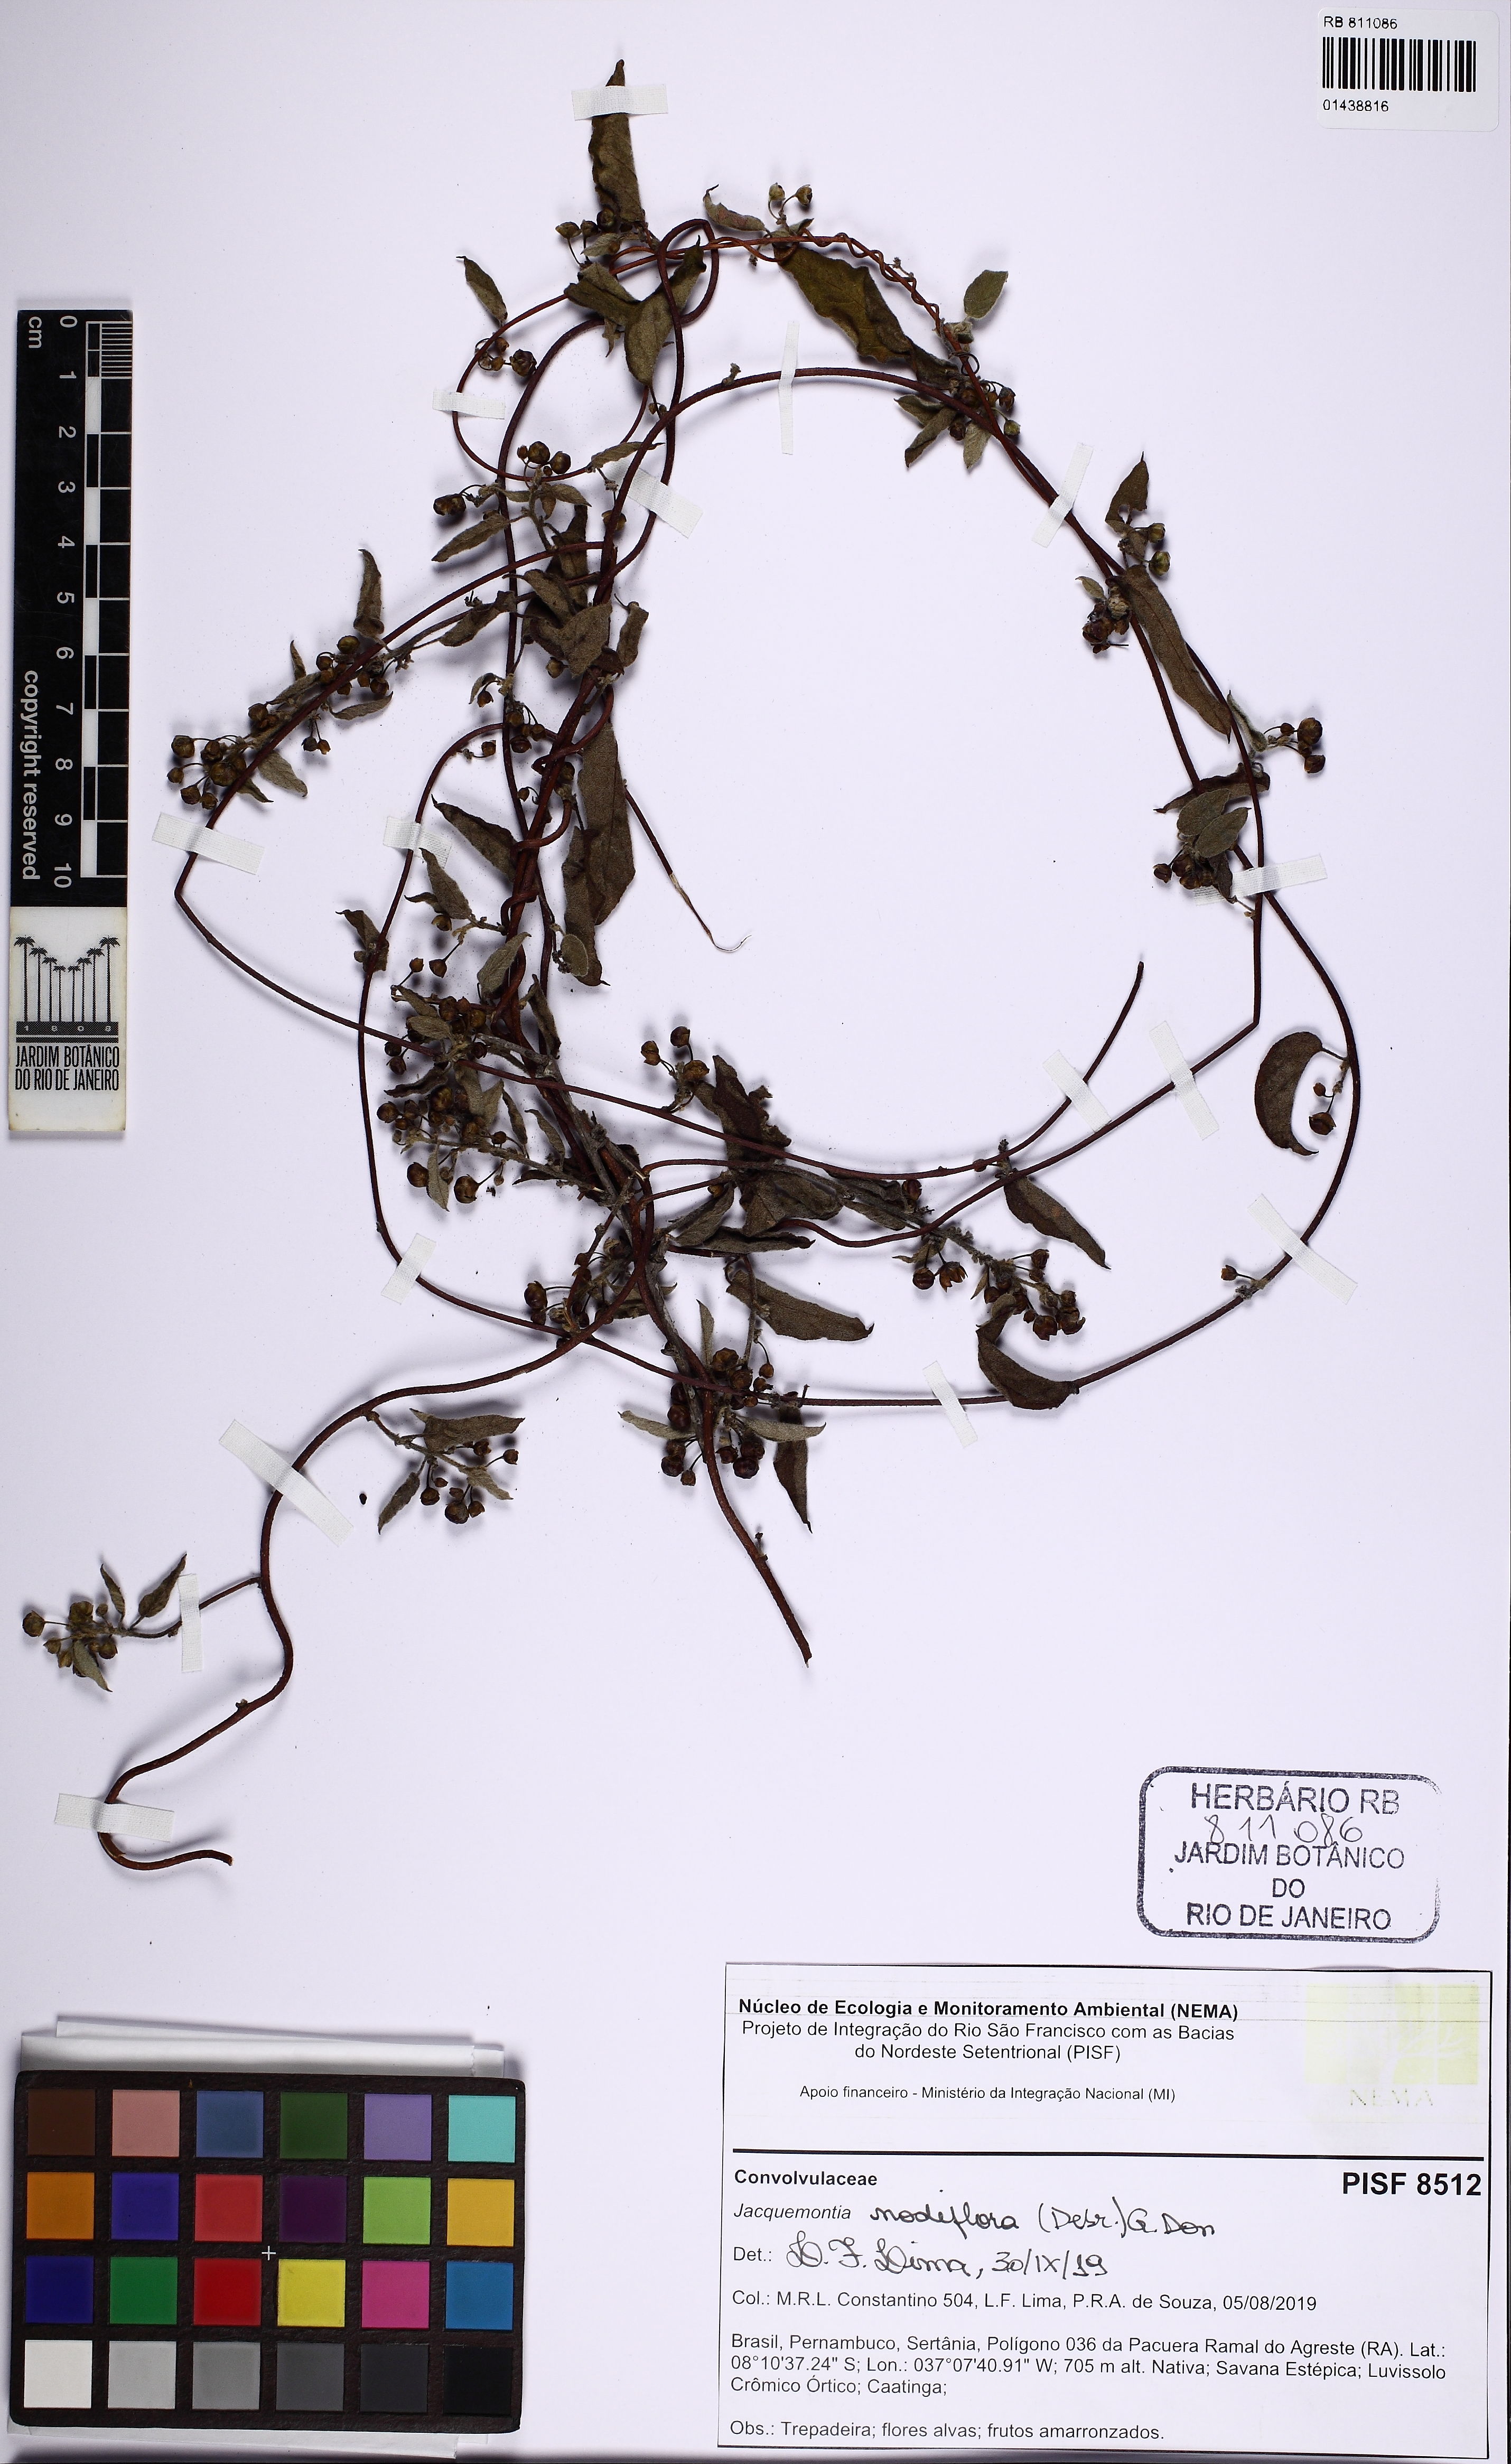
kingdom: Plantae
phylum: Tracheophyta
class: Magnoliopsida
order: Solanales
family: Convolvulaceae
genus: Jacquemontia
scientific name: Jacquemontia nodiflora
